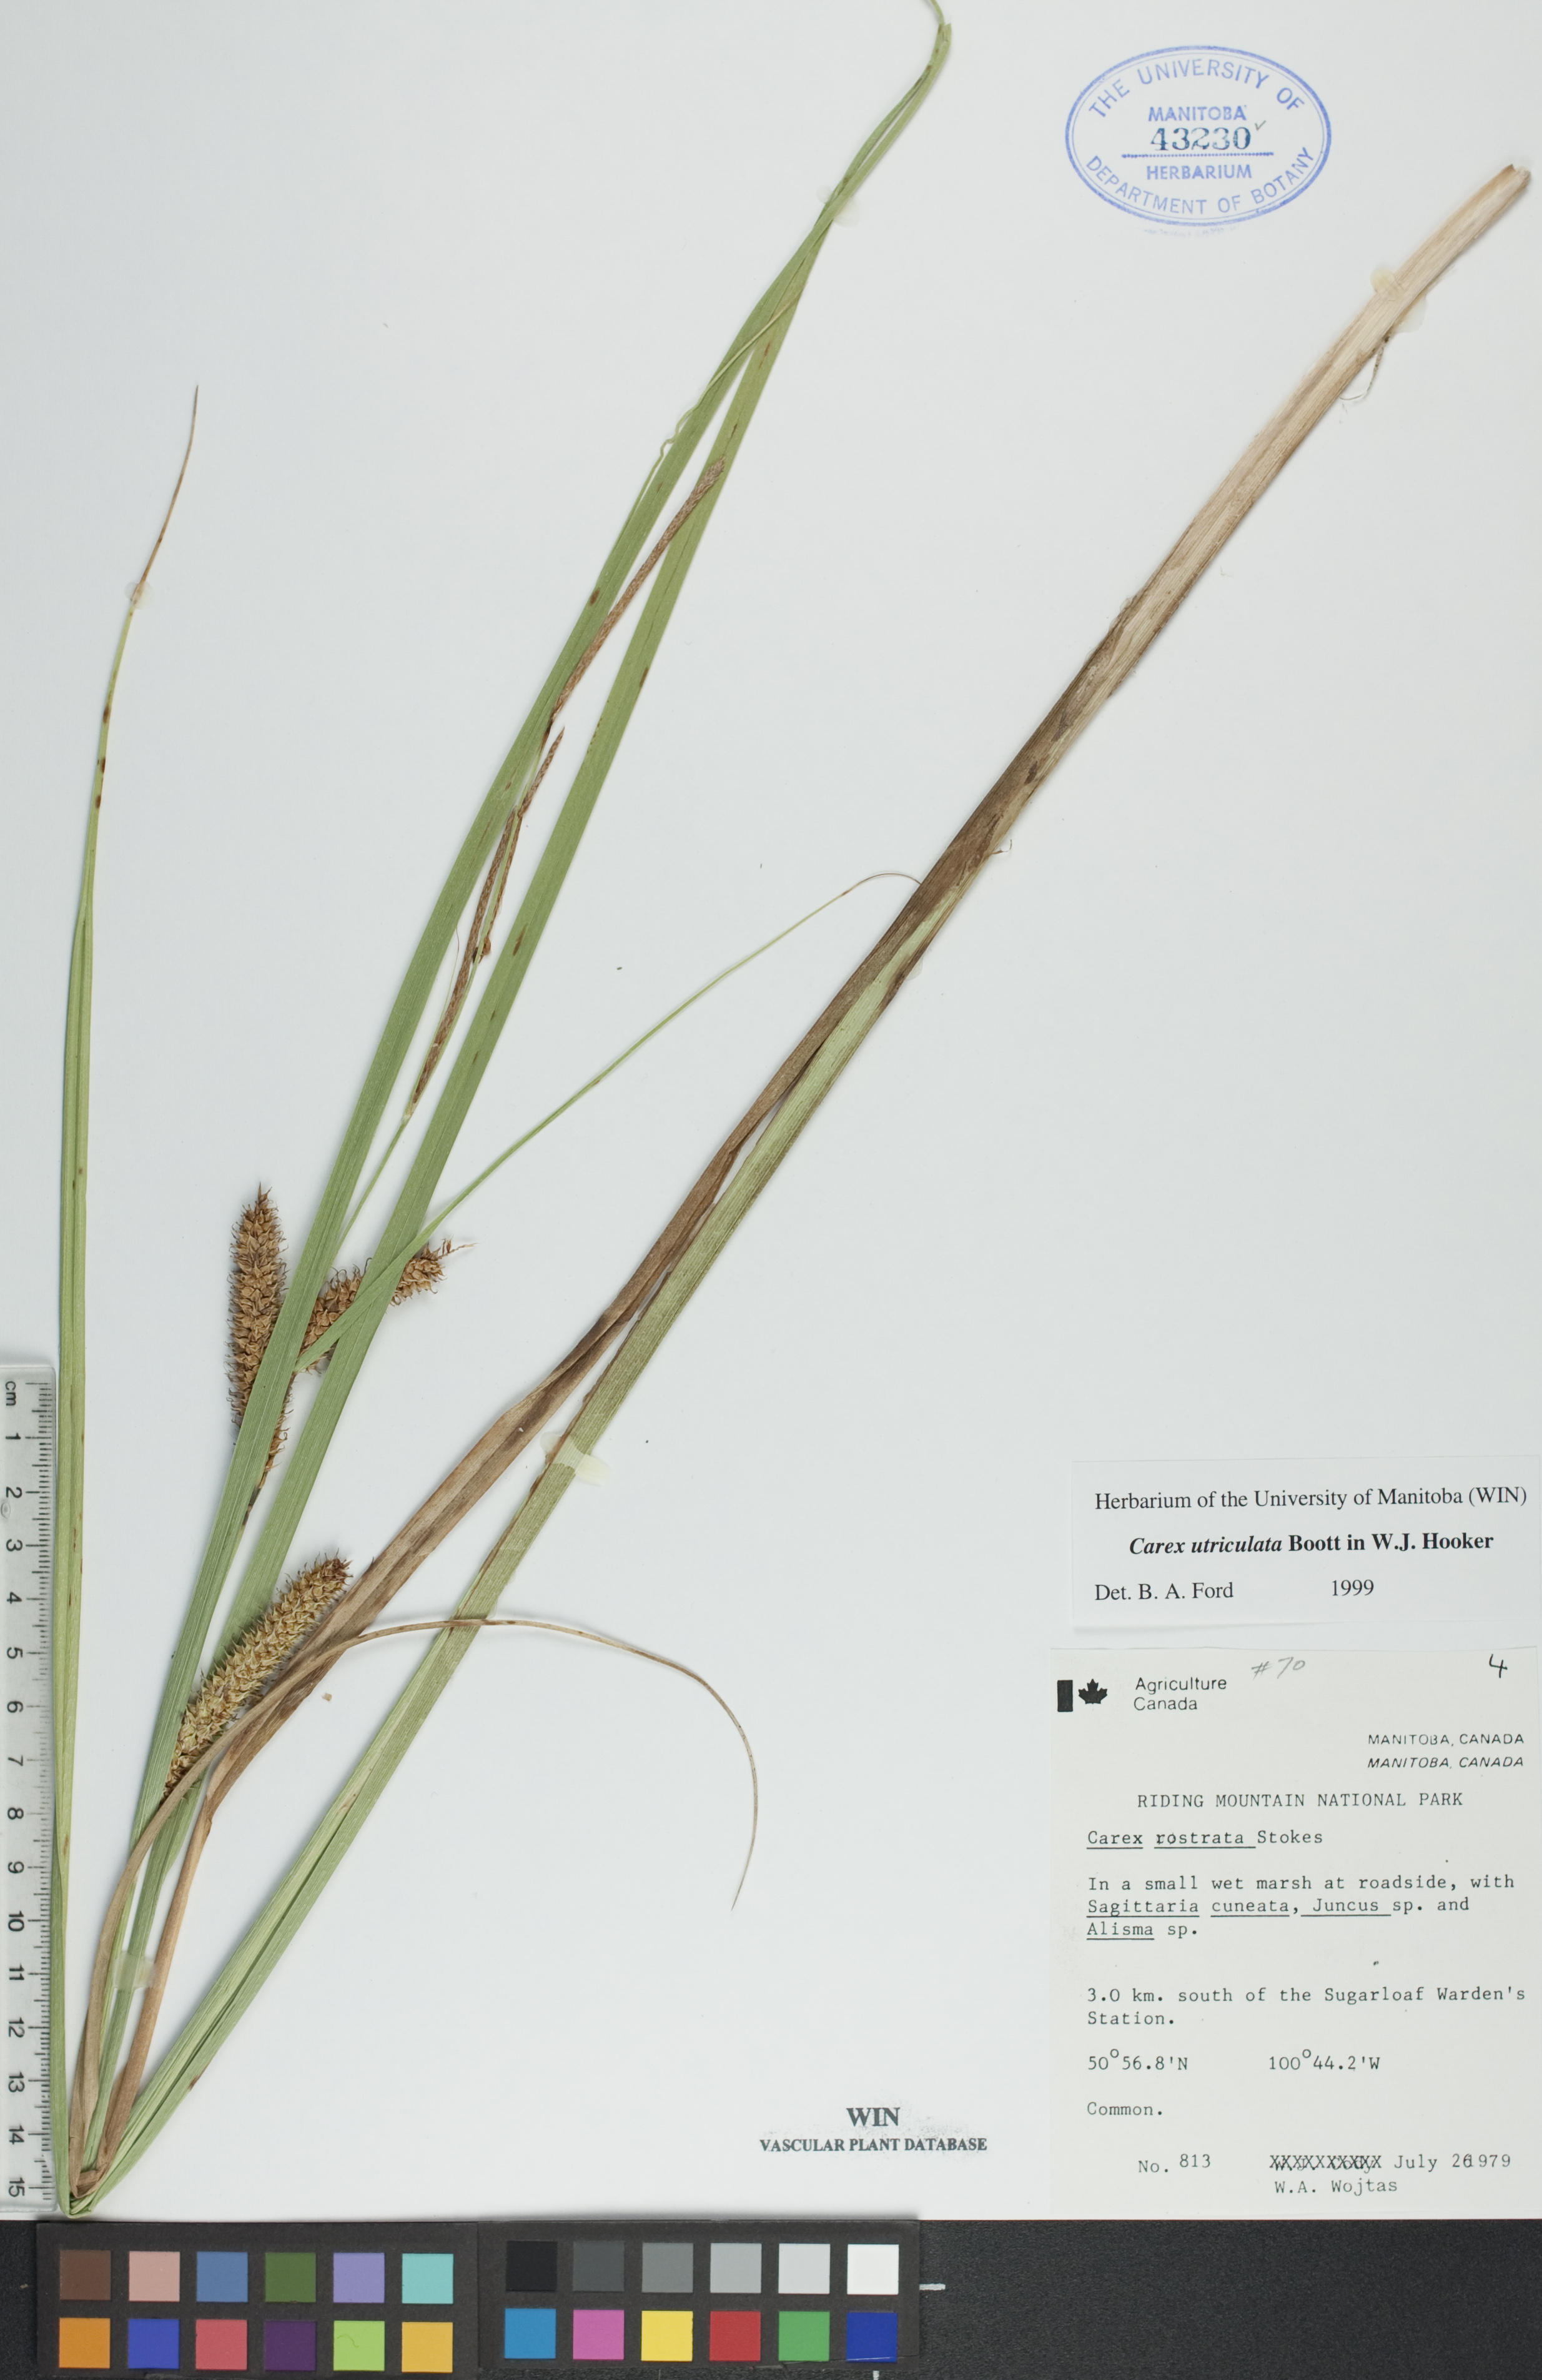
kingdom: Plantae
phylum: Tracheophyta
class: Liliopsida
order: Poales
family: Cyperaceae
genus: Carex
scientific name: Carex utriculata
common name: Beaked sedge
